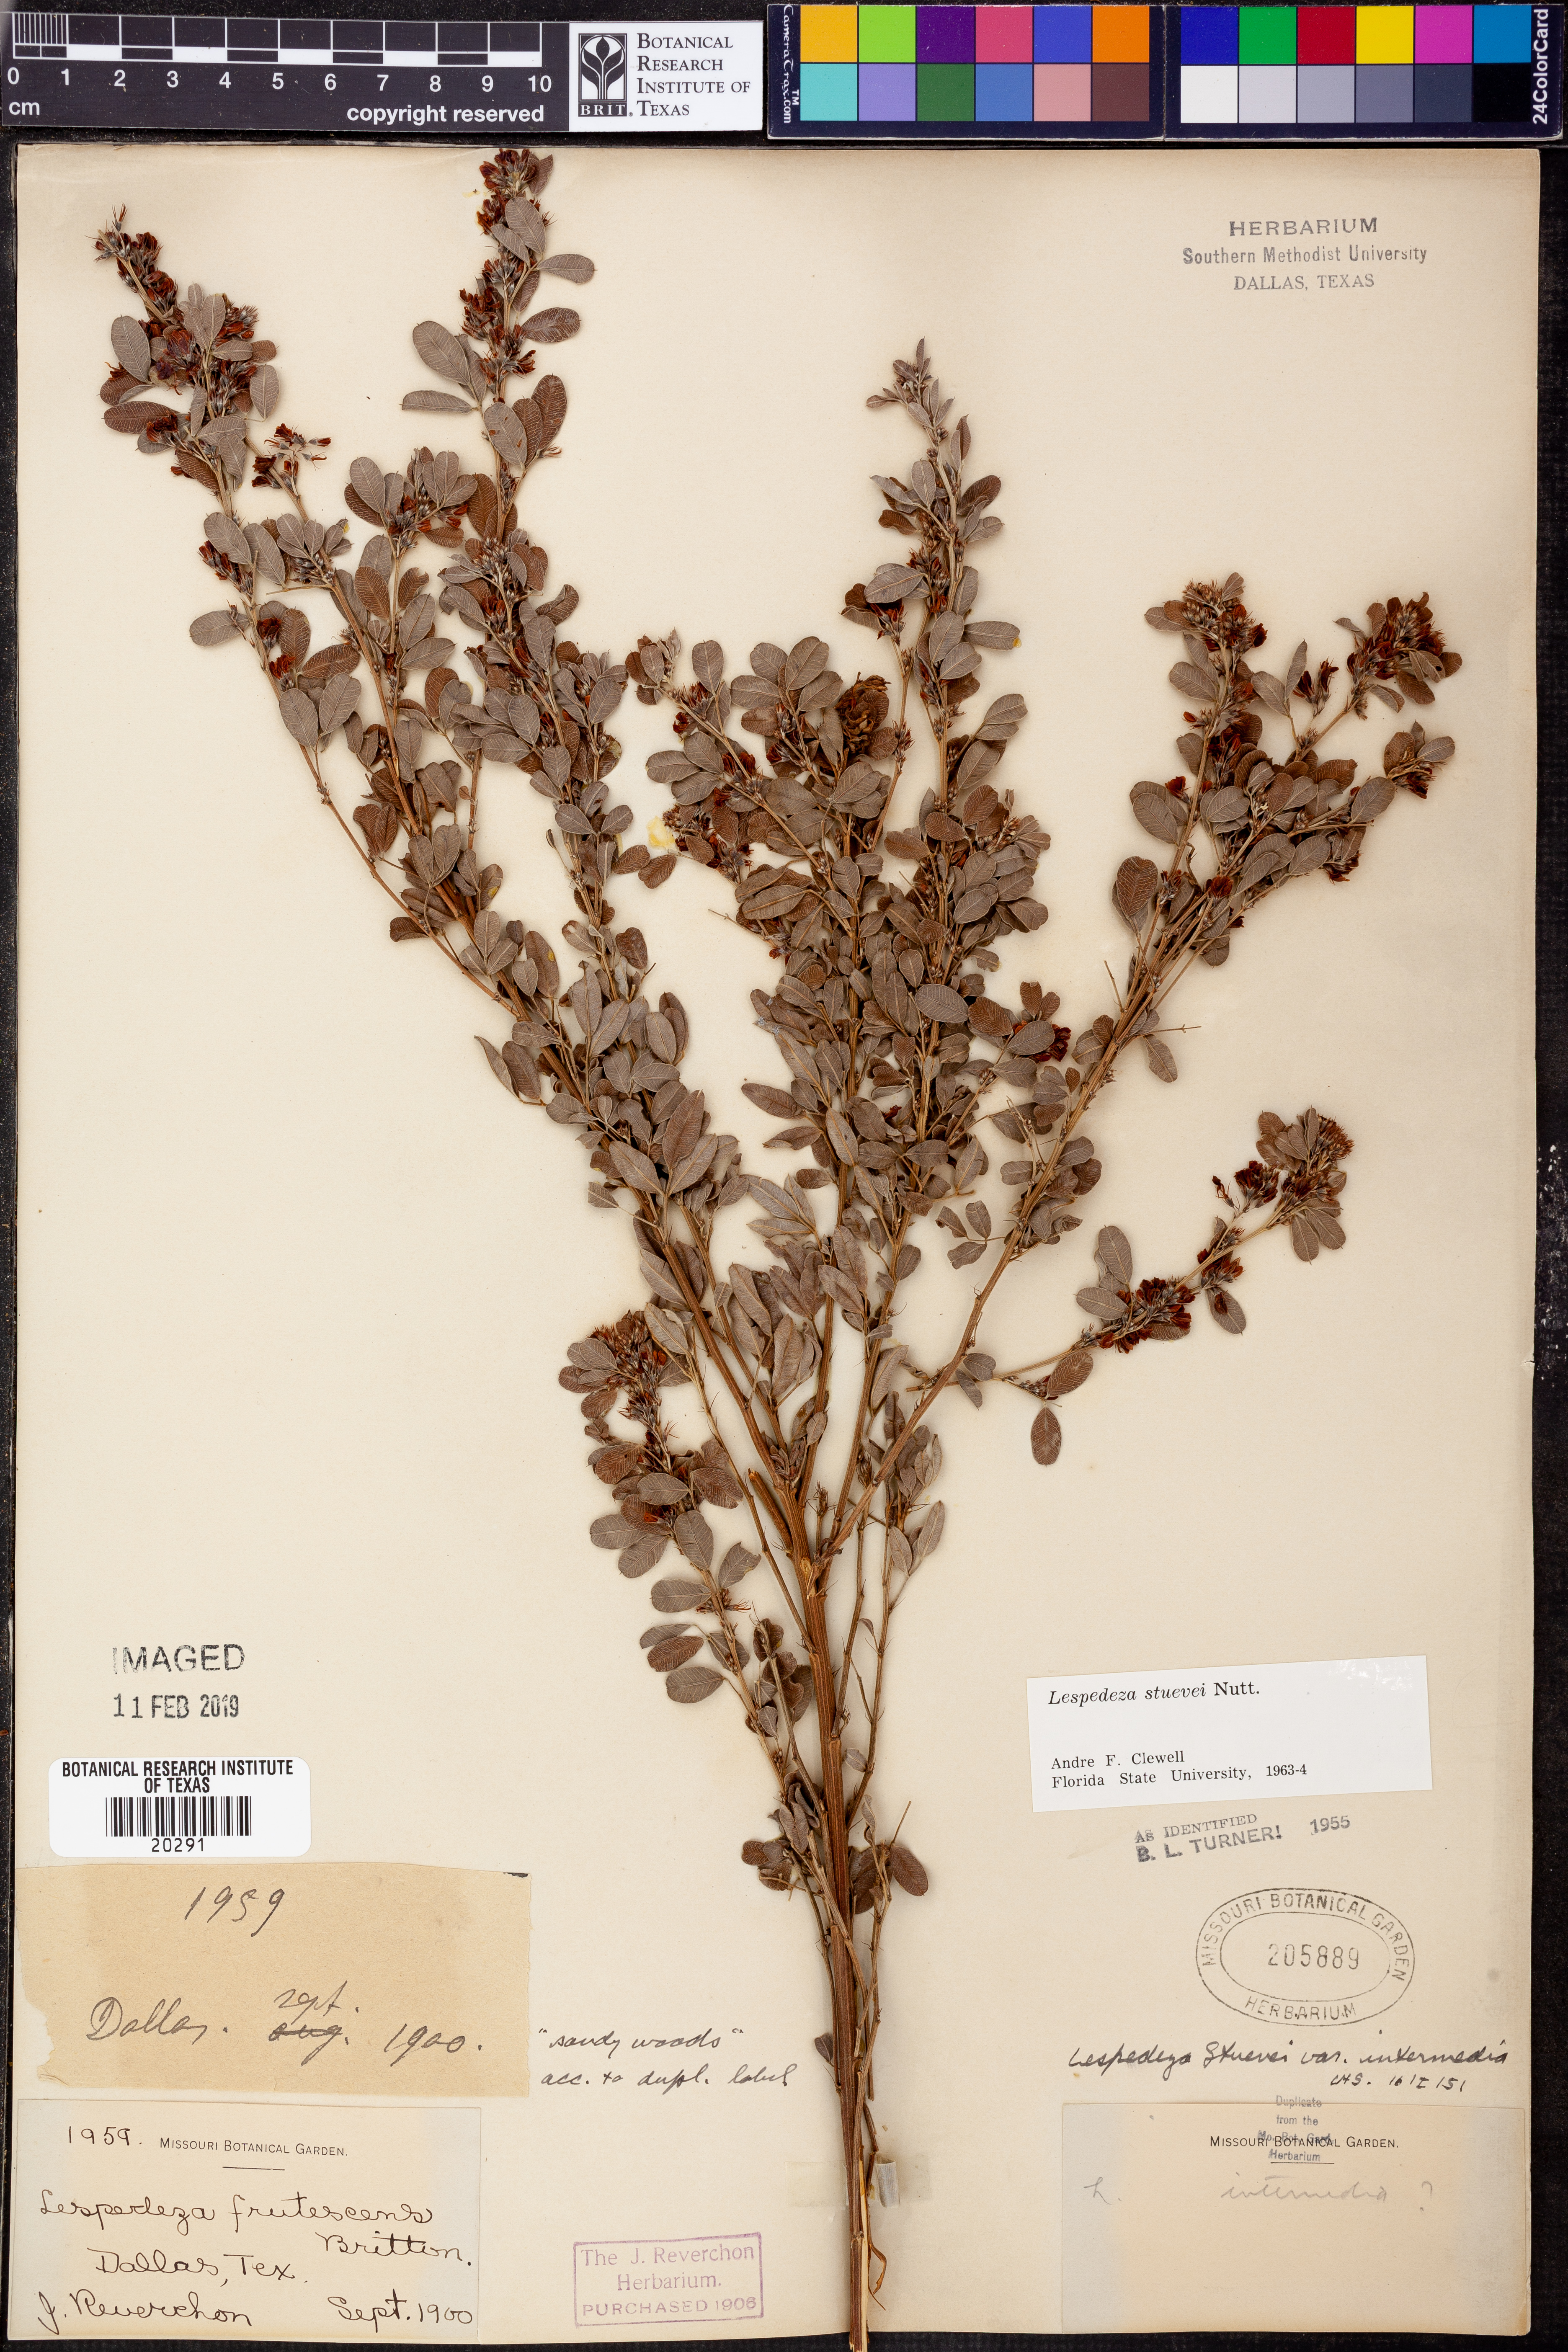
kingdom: Plantae
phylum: Tracheophyta
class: Magnoliopsida
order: Fabales
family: Fabaceae
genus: Lespedeza
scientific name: Lespedeza stuevei
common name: Tall bush-clover
